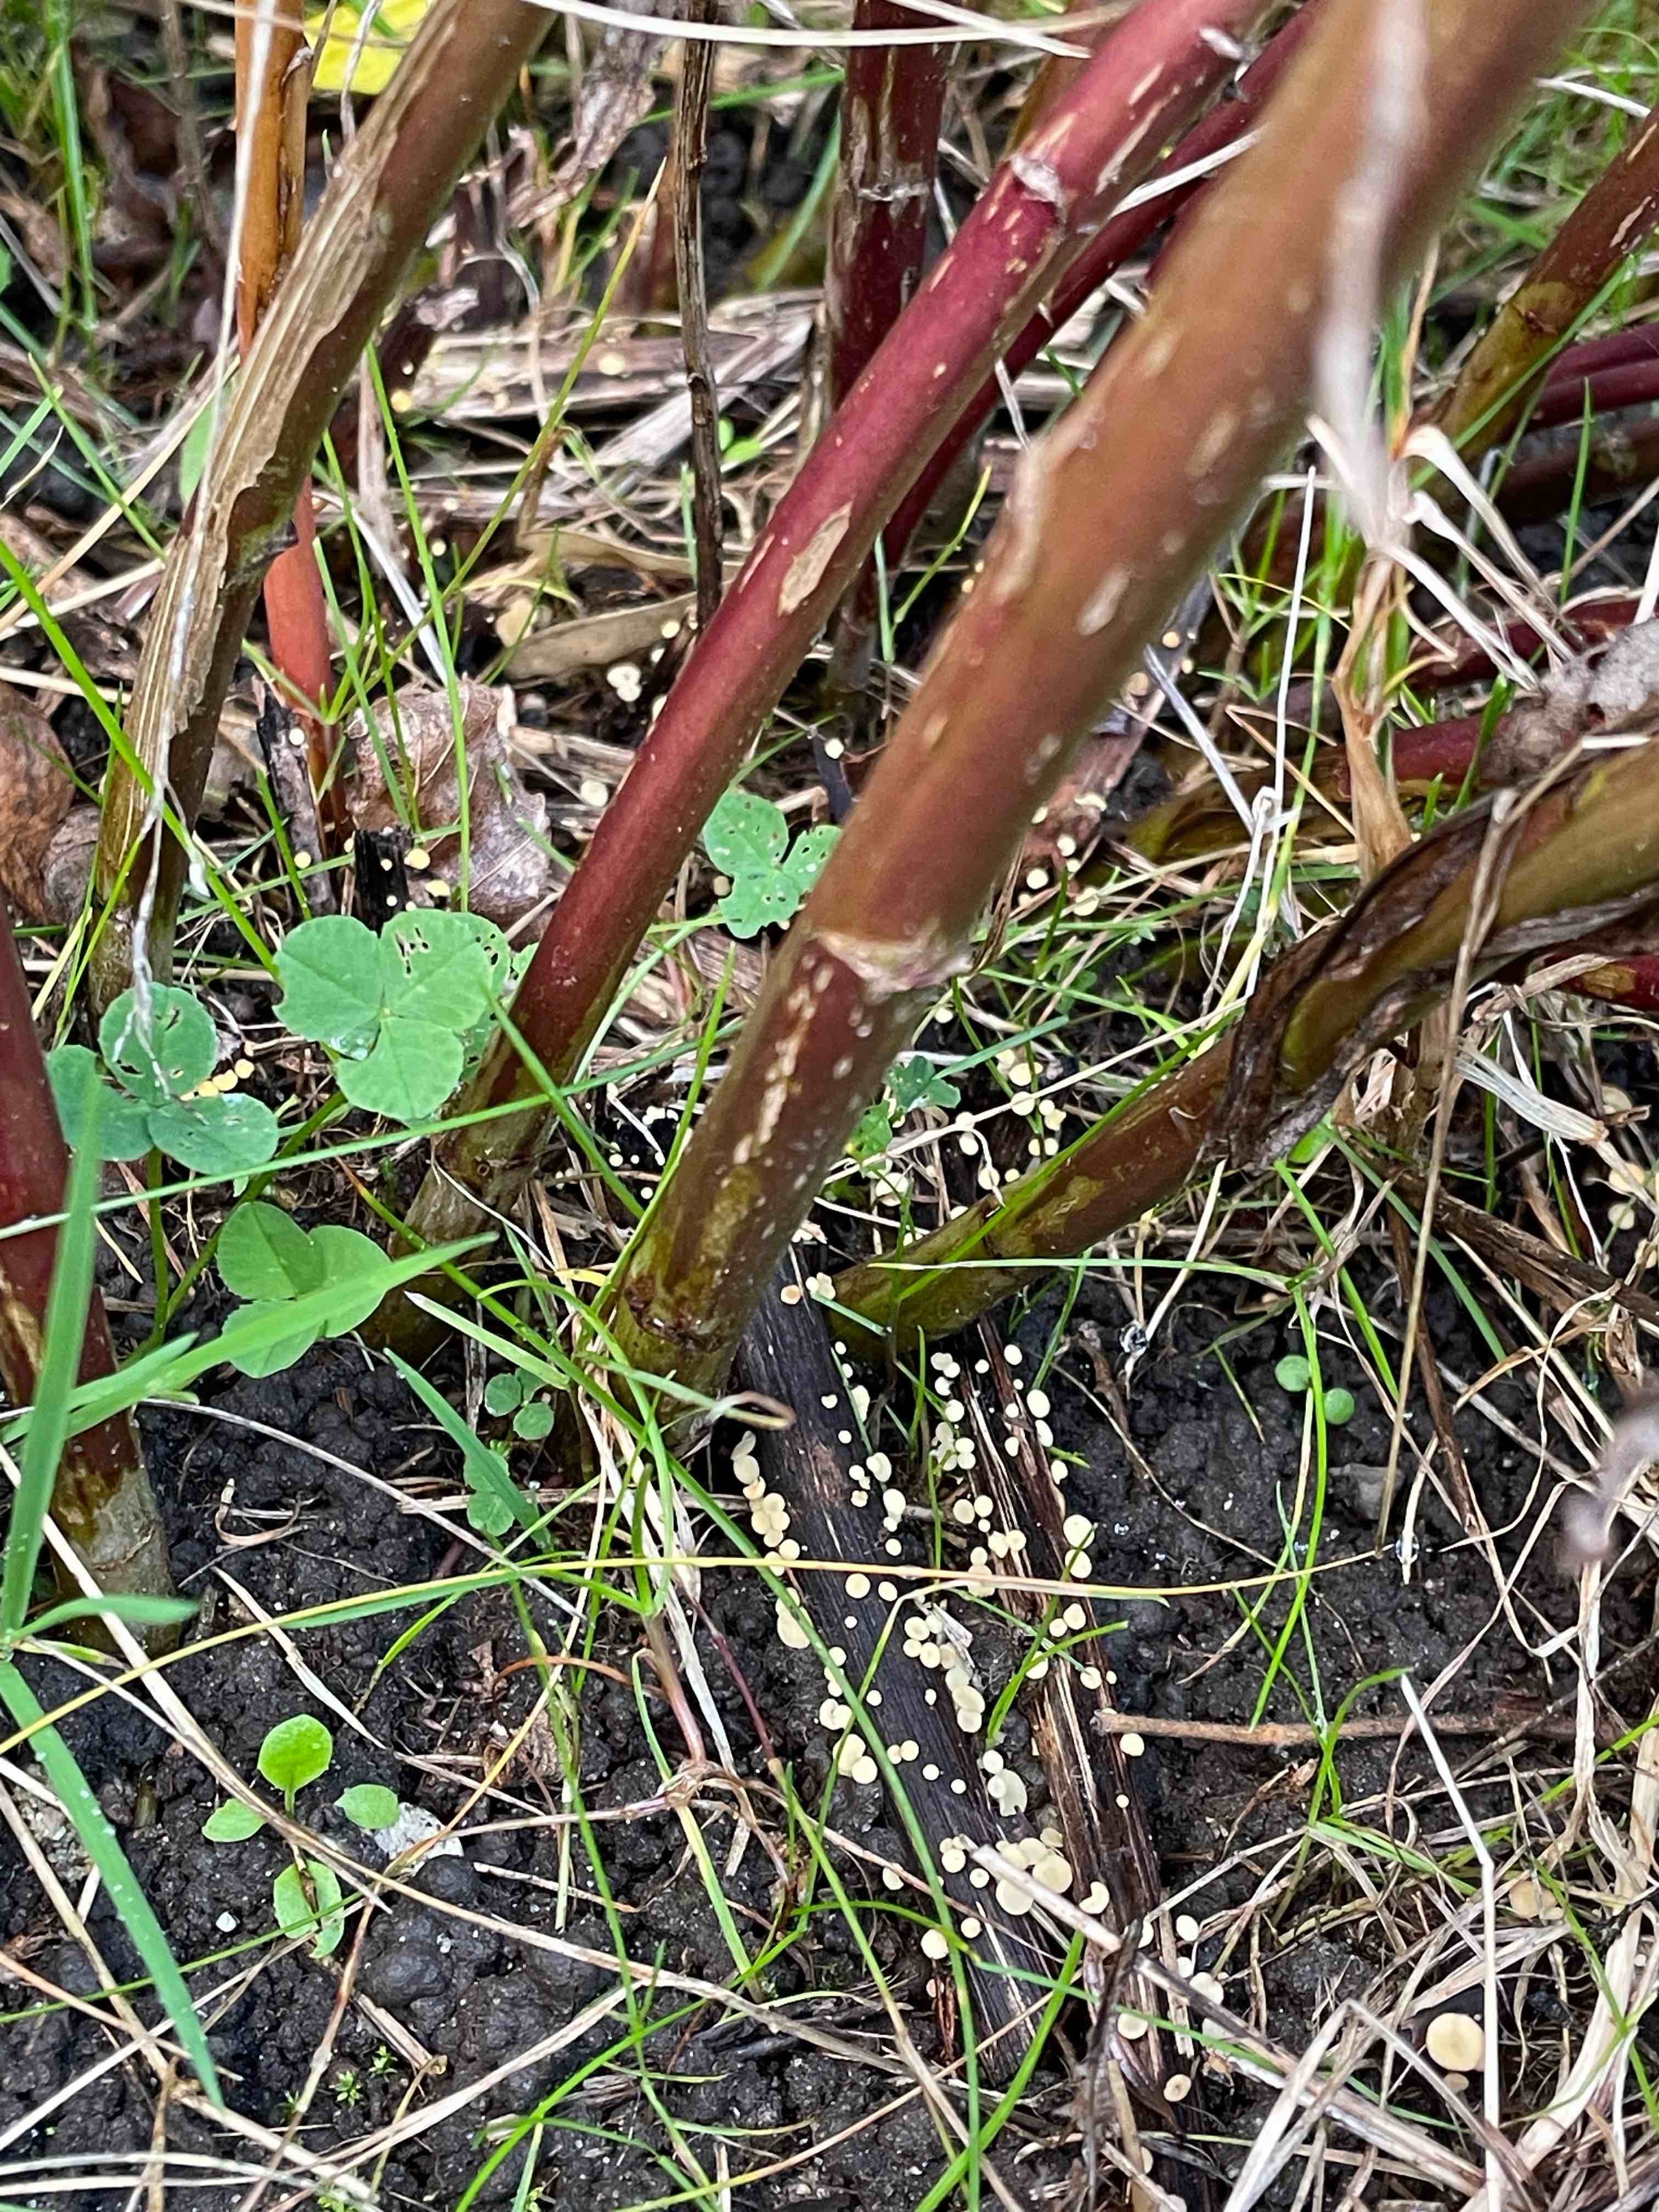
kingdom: Fungi
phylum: Ascomycota
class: Leotiomycetes
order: Helotiales
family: Helotiaceae
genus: Hymenoscyphus
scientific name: Hymenoscyphus scutula
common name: almindelig stilkskive
